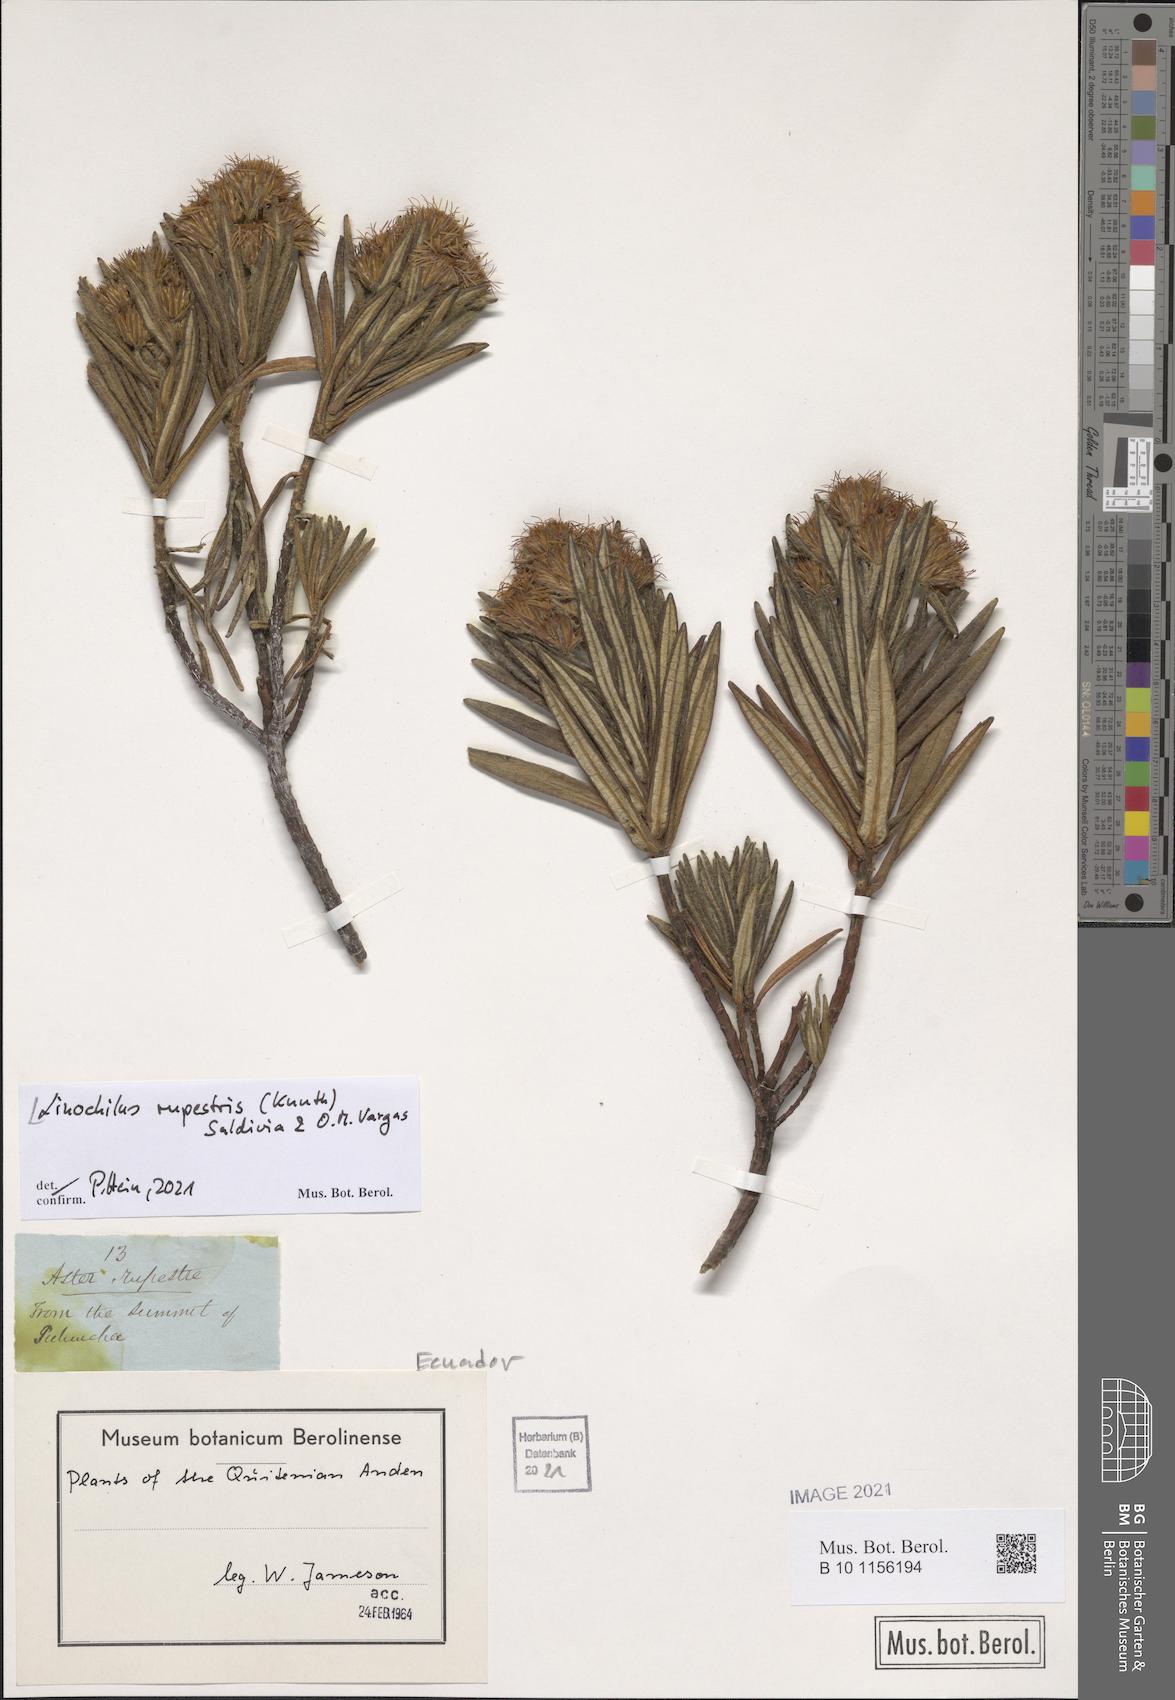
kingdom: Plantae
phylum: Tracheophyta
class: Magnoliopsida
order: Asterales
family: Asteraceae
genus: Linochilus
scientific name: Linochilus rupestris
